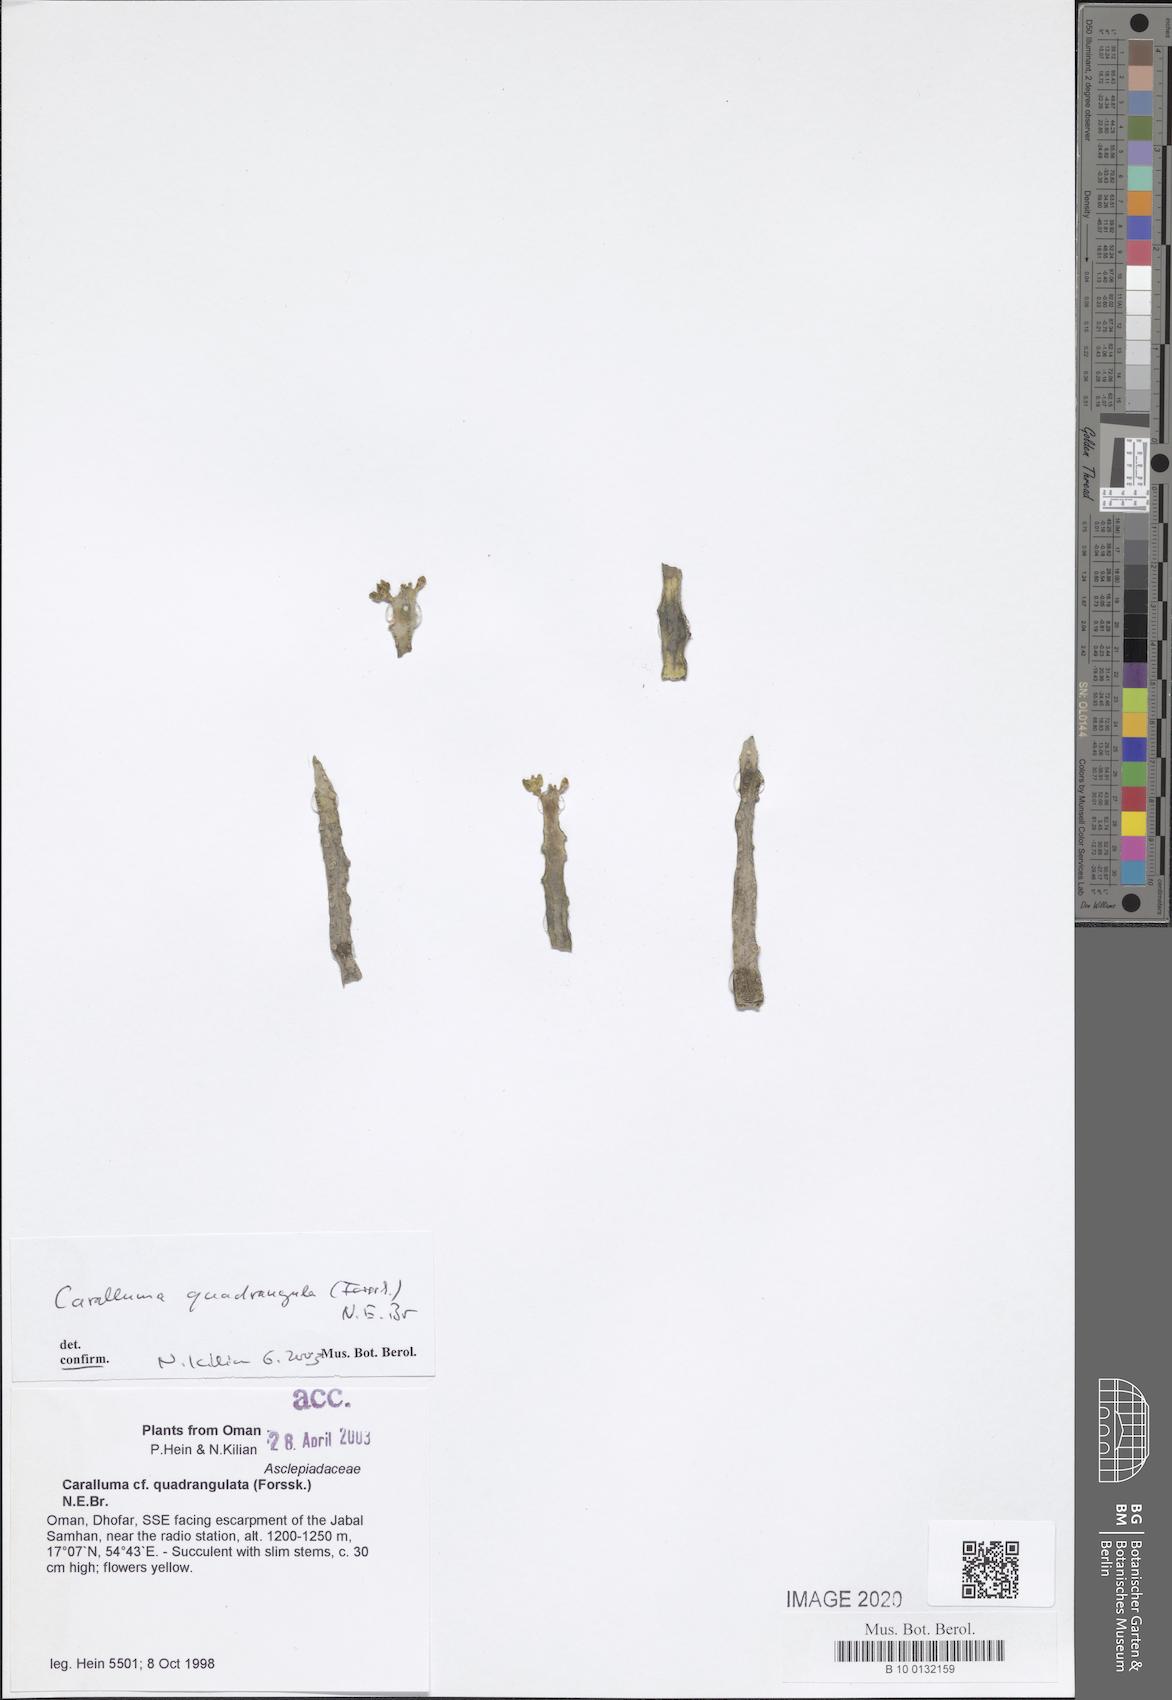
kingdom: Plantae
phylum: Tracheophyta
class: Magnoliopsida
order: Gentianales
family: Apocynaceae
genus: Ceropegia
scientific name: Ceropegia quadrangula
